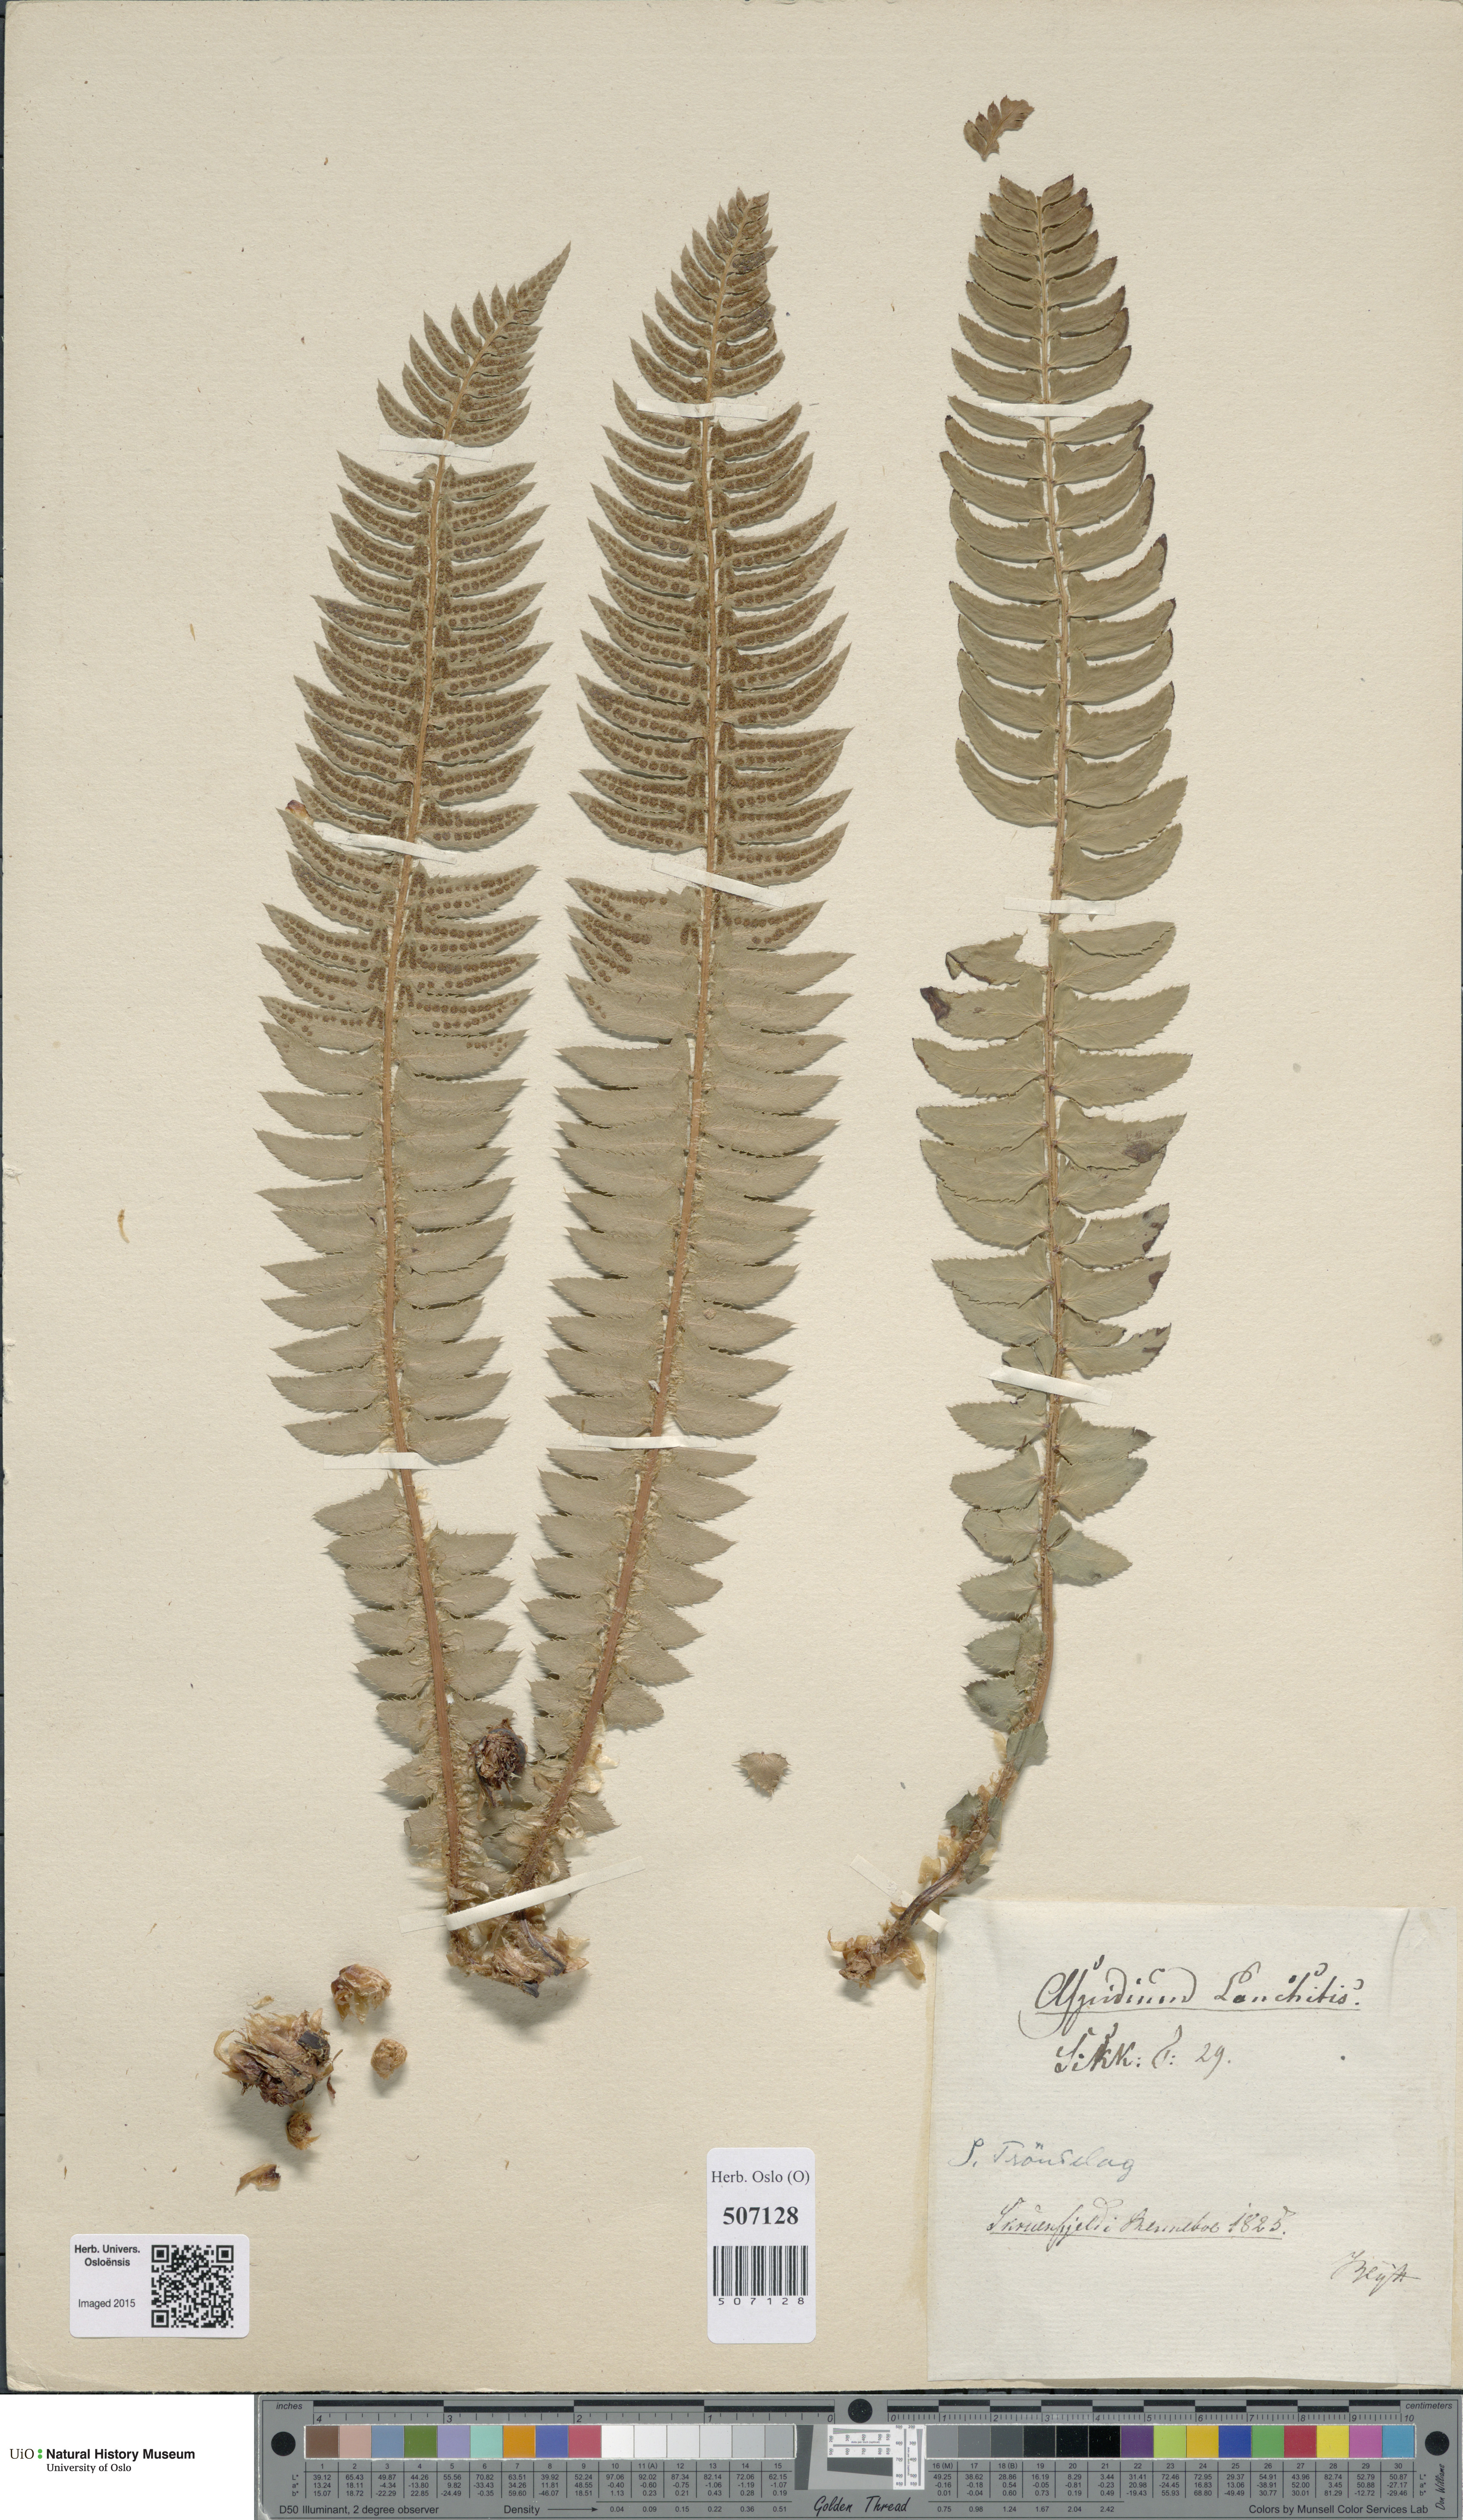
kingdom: Plantae
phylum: Tracheophyta
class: Polypodiopsida
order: Polypodiales
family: Dryopteridaceae
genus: Polystichum
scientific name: Polystichum lonchitis
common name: Holly fern
